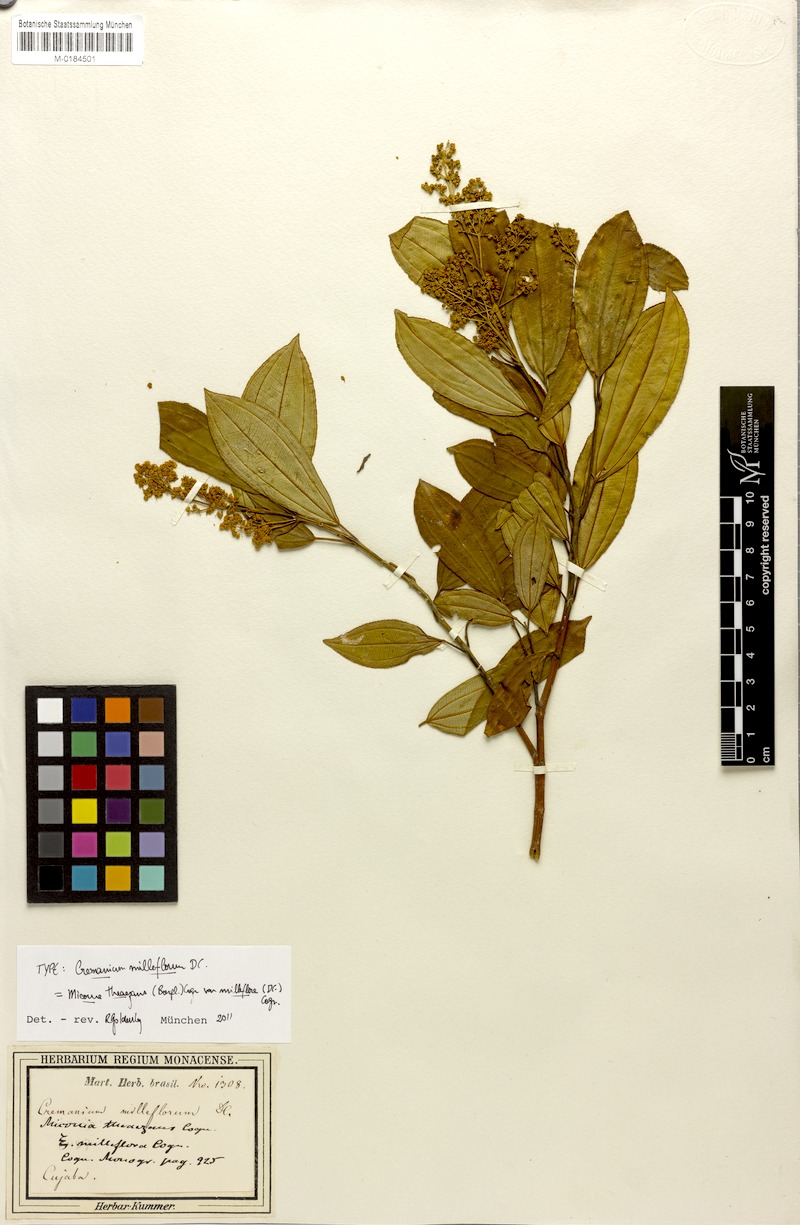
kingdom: Plantae
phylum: Tracheophyta
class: Magnoliopsida
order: Myrtales
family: Melastomataceae
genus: Miconia
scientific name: Miconia theizans
